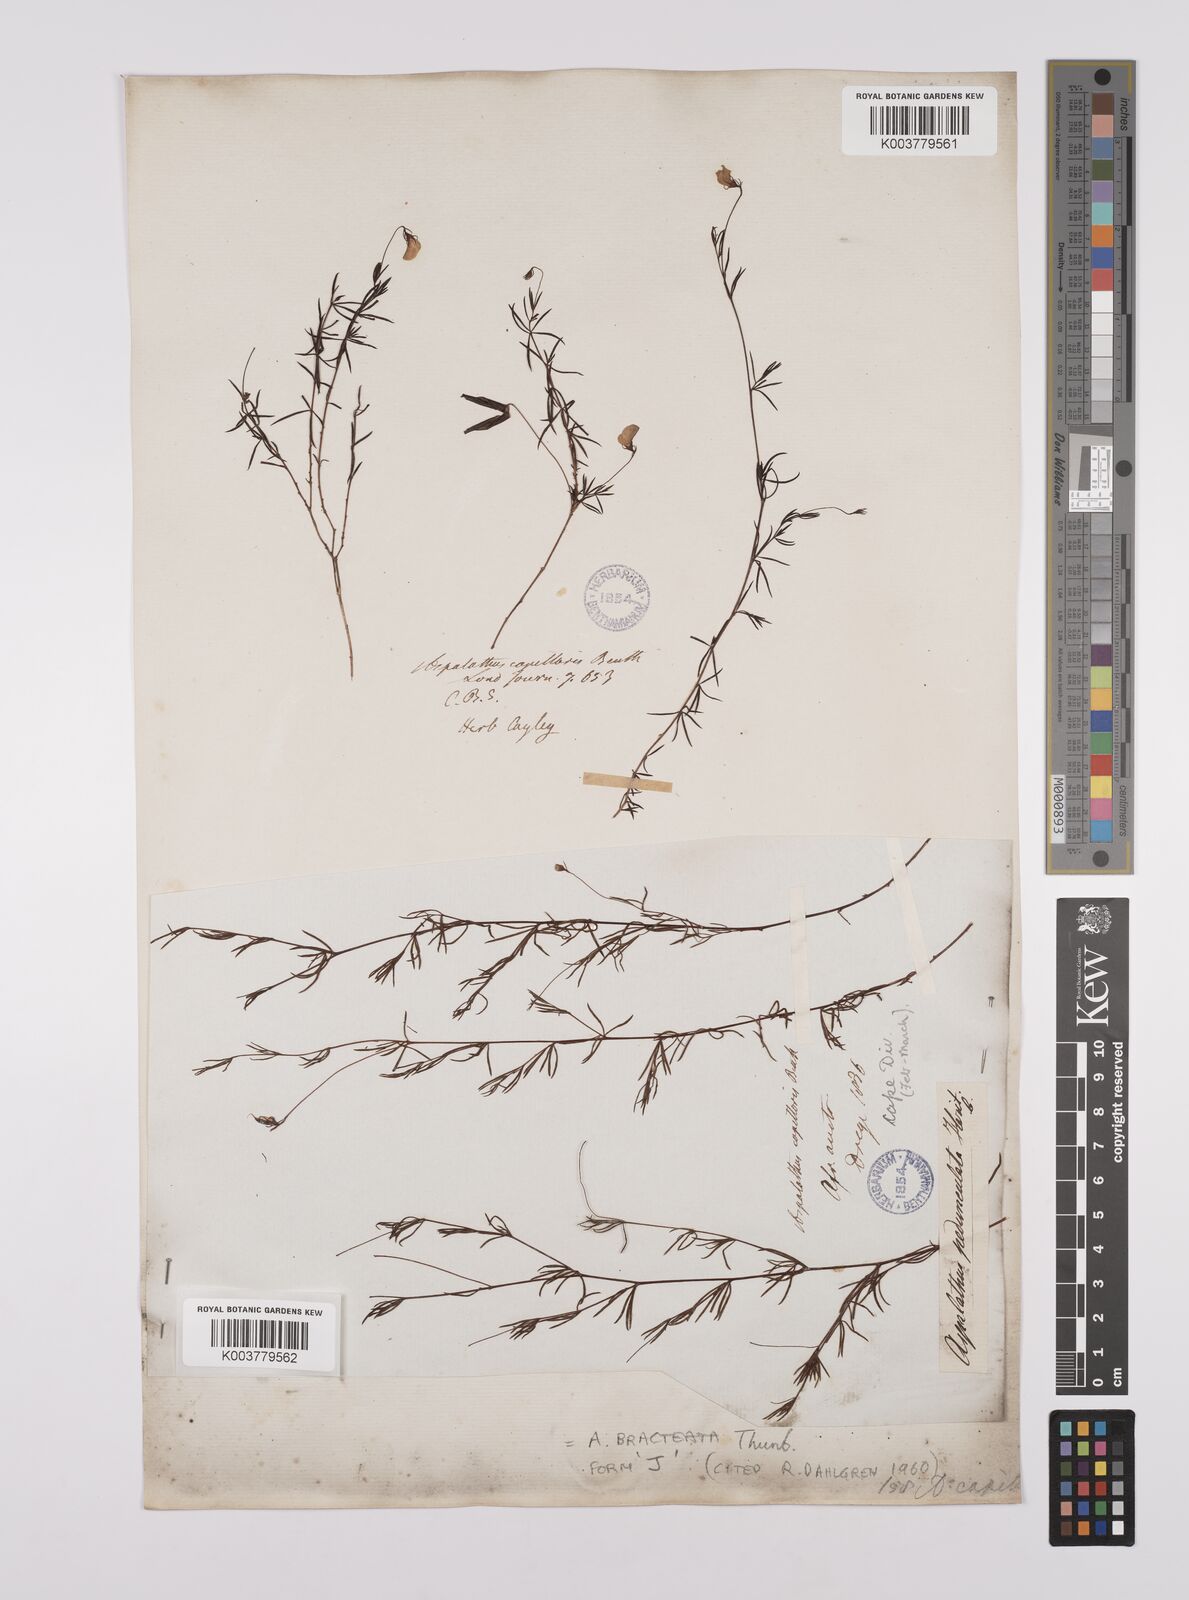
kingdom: Plantae
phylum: Tracheophyta
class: Magnoliopsida
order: Fabales
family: Fabaceae
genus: Aspalathus
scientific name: Aspalathus bracteata
